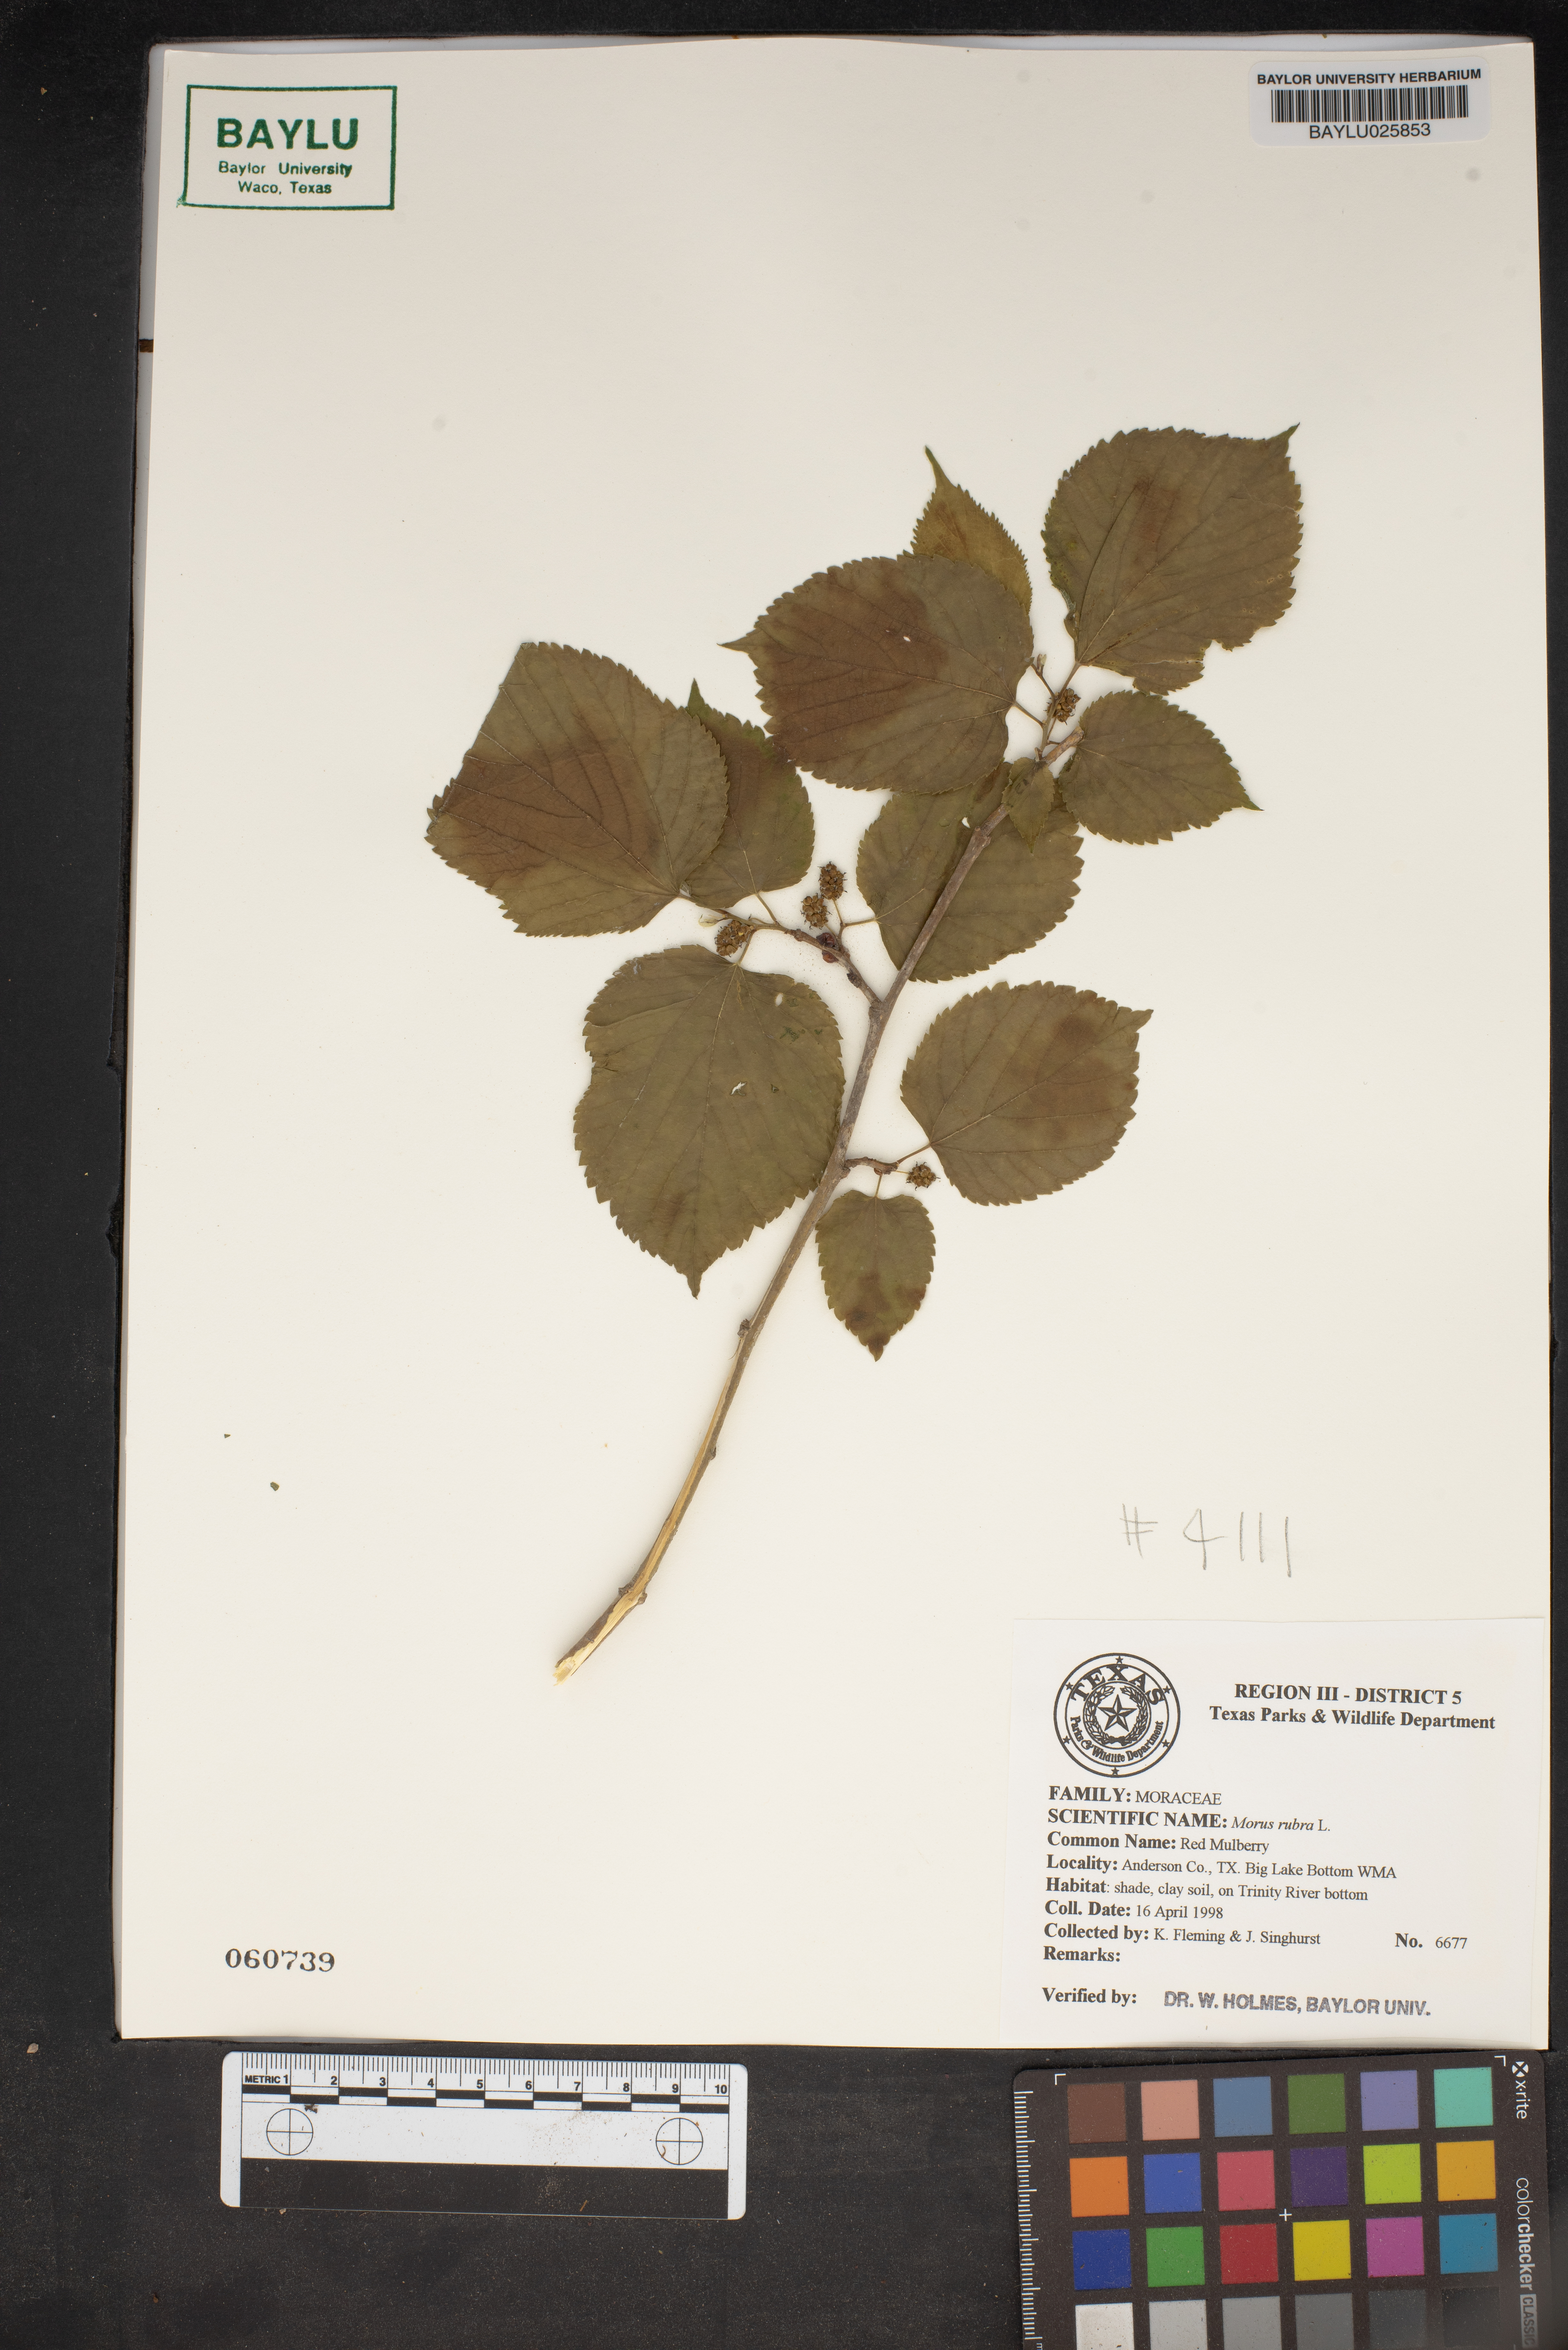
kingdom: Plantae
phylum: Tracheophyta
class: Magnoliopsida
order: Rosales
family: Moraceae
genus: Morus
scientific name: Morus rubra
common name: Red mulberry
